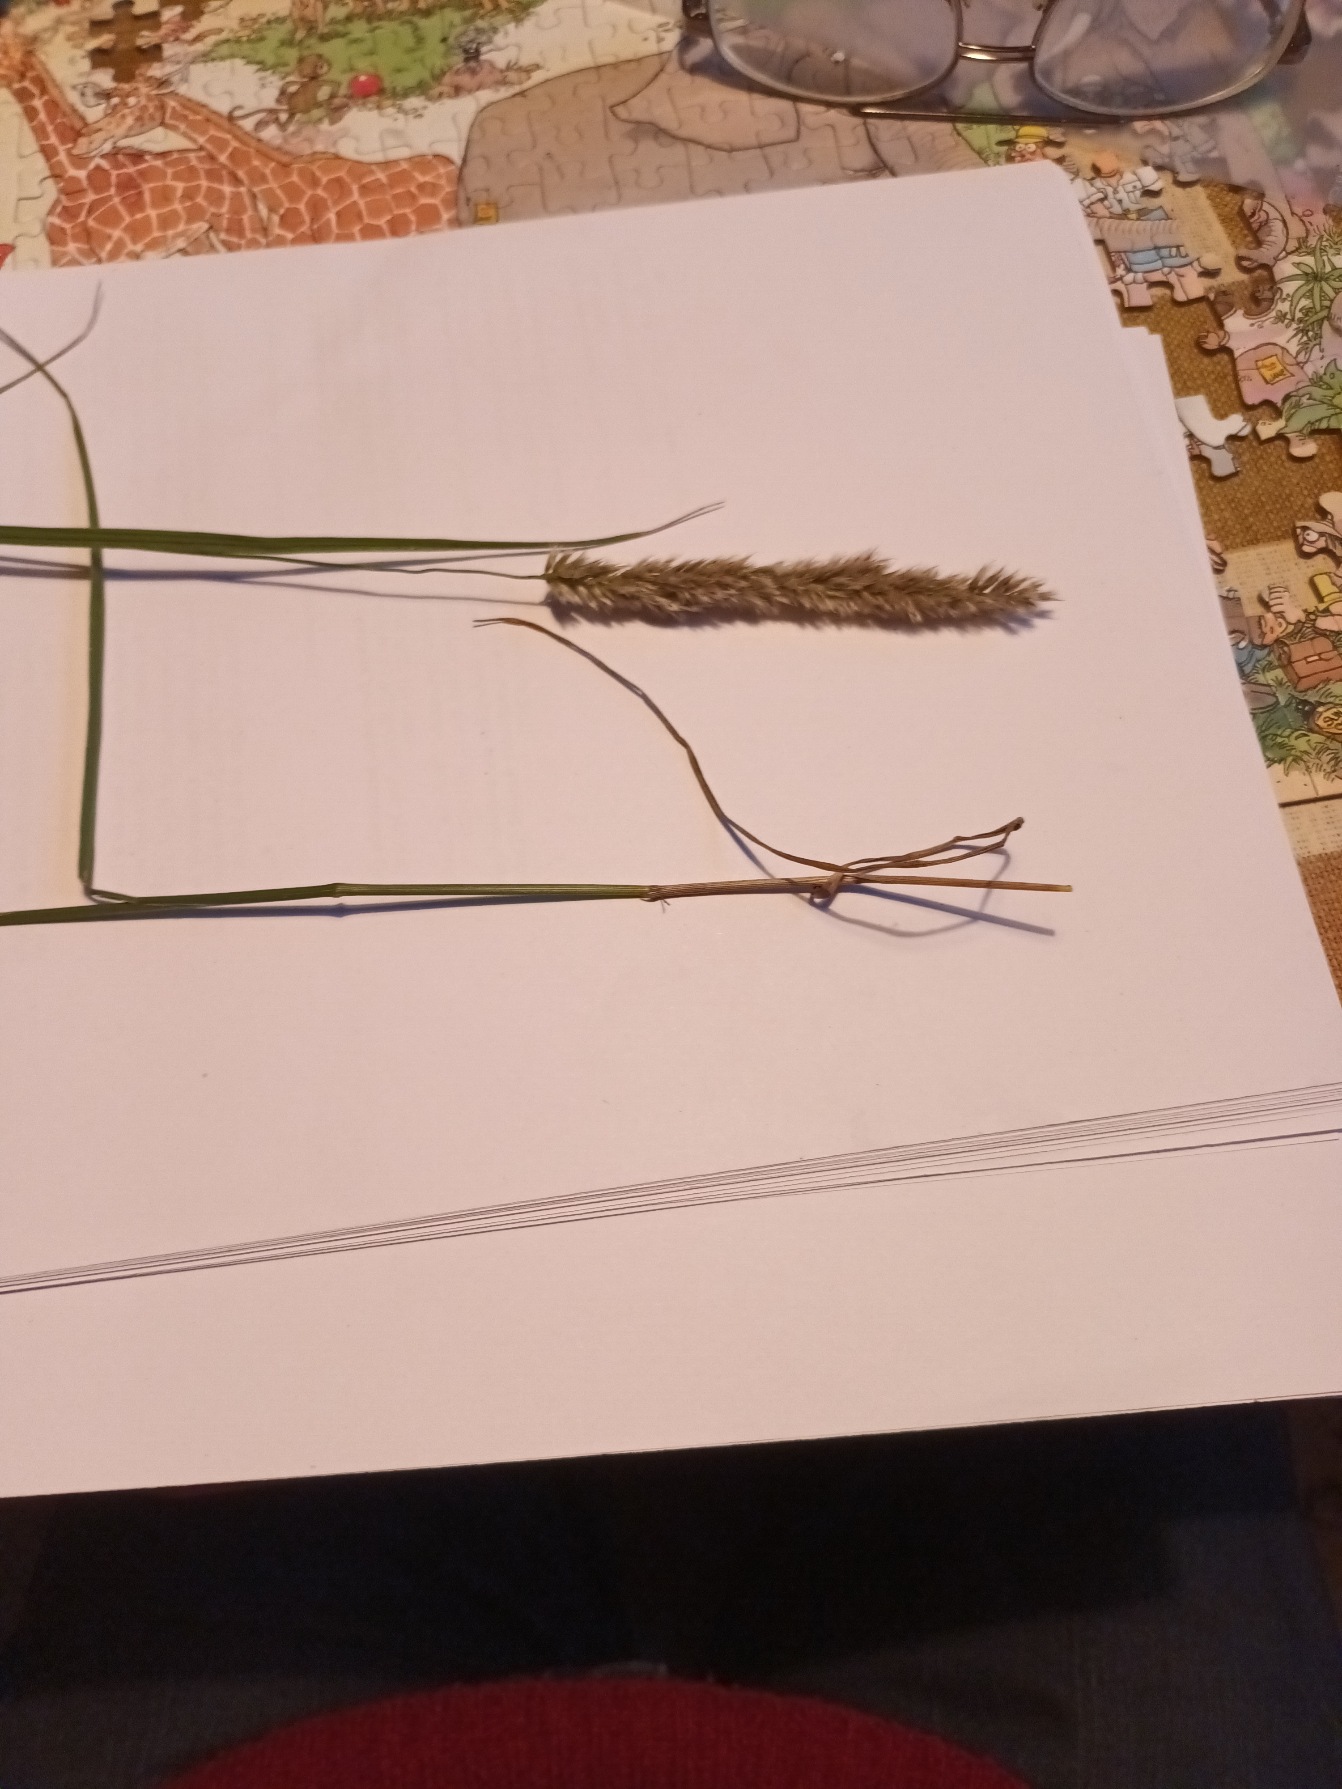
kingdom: Plantae
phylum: Tracheophyta
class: Liliopsida
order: Poales
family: Poaceae
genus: Melica
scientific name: Melica transsilvanica
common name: Dusk-flitteraks
